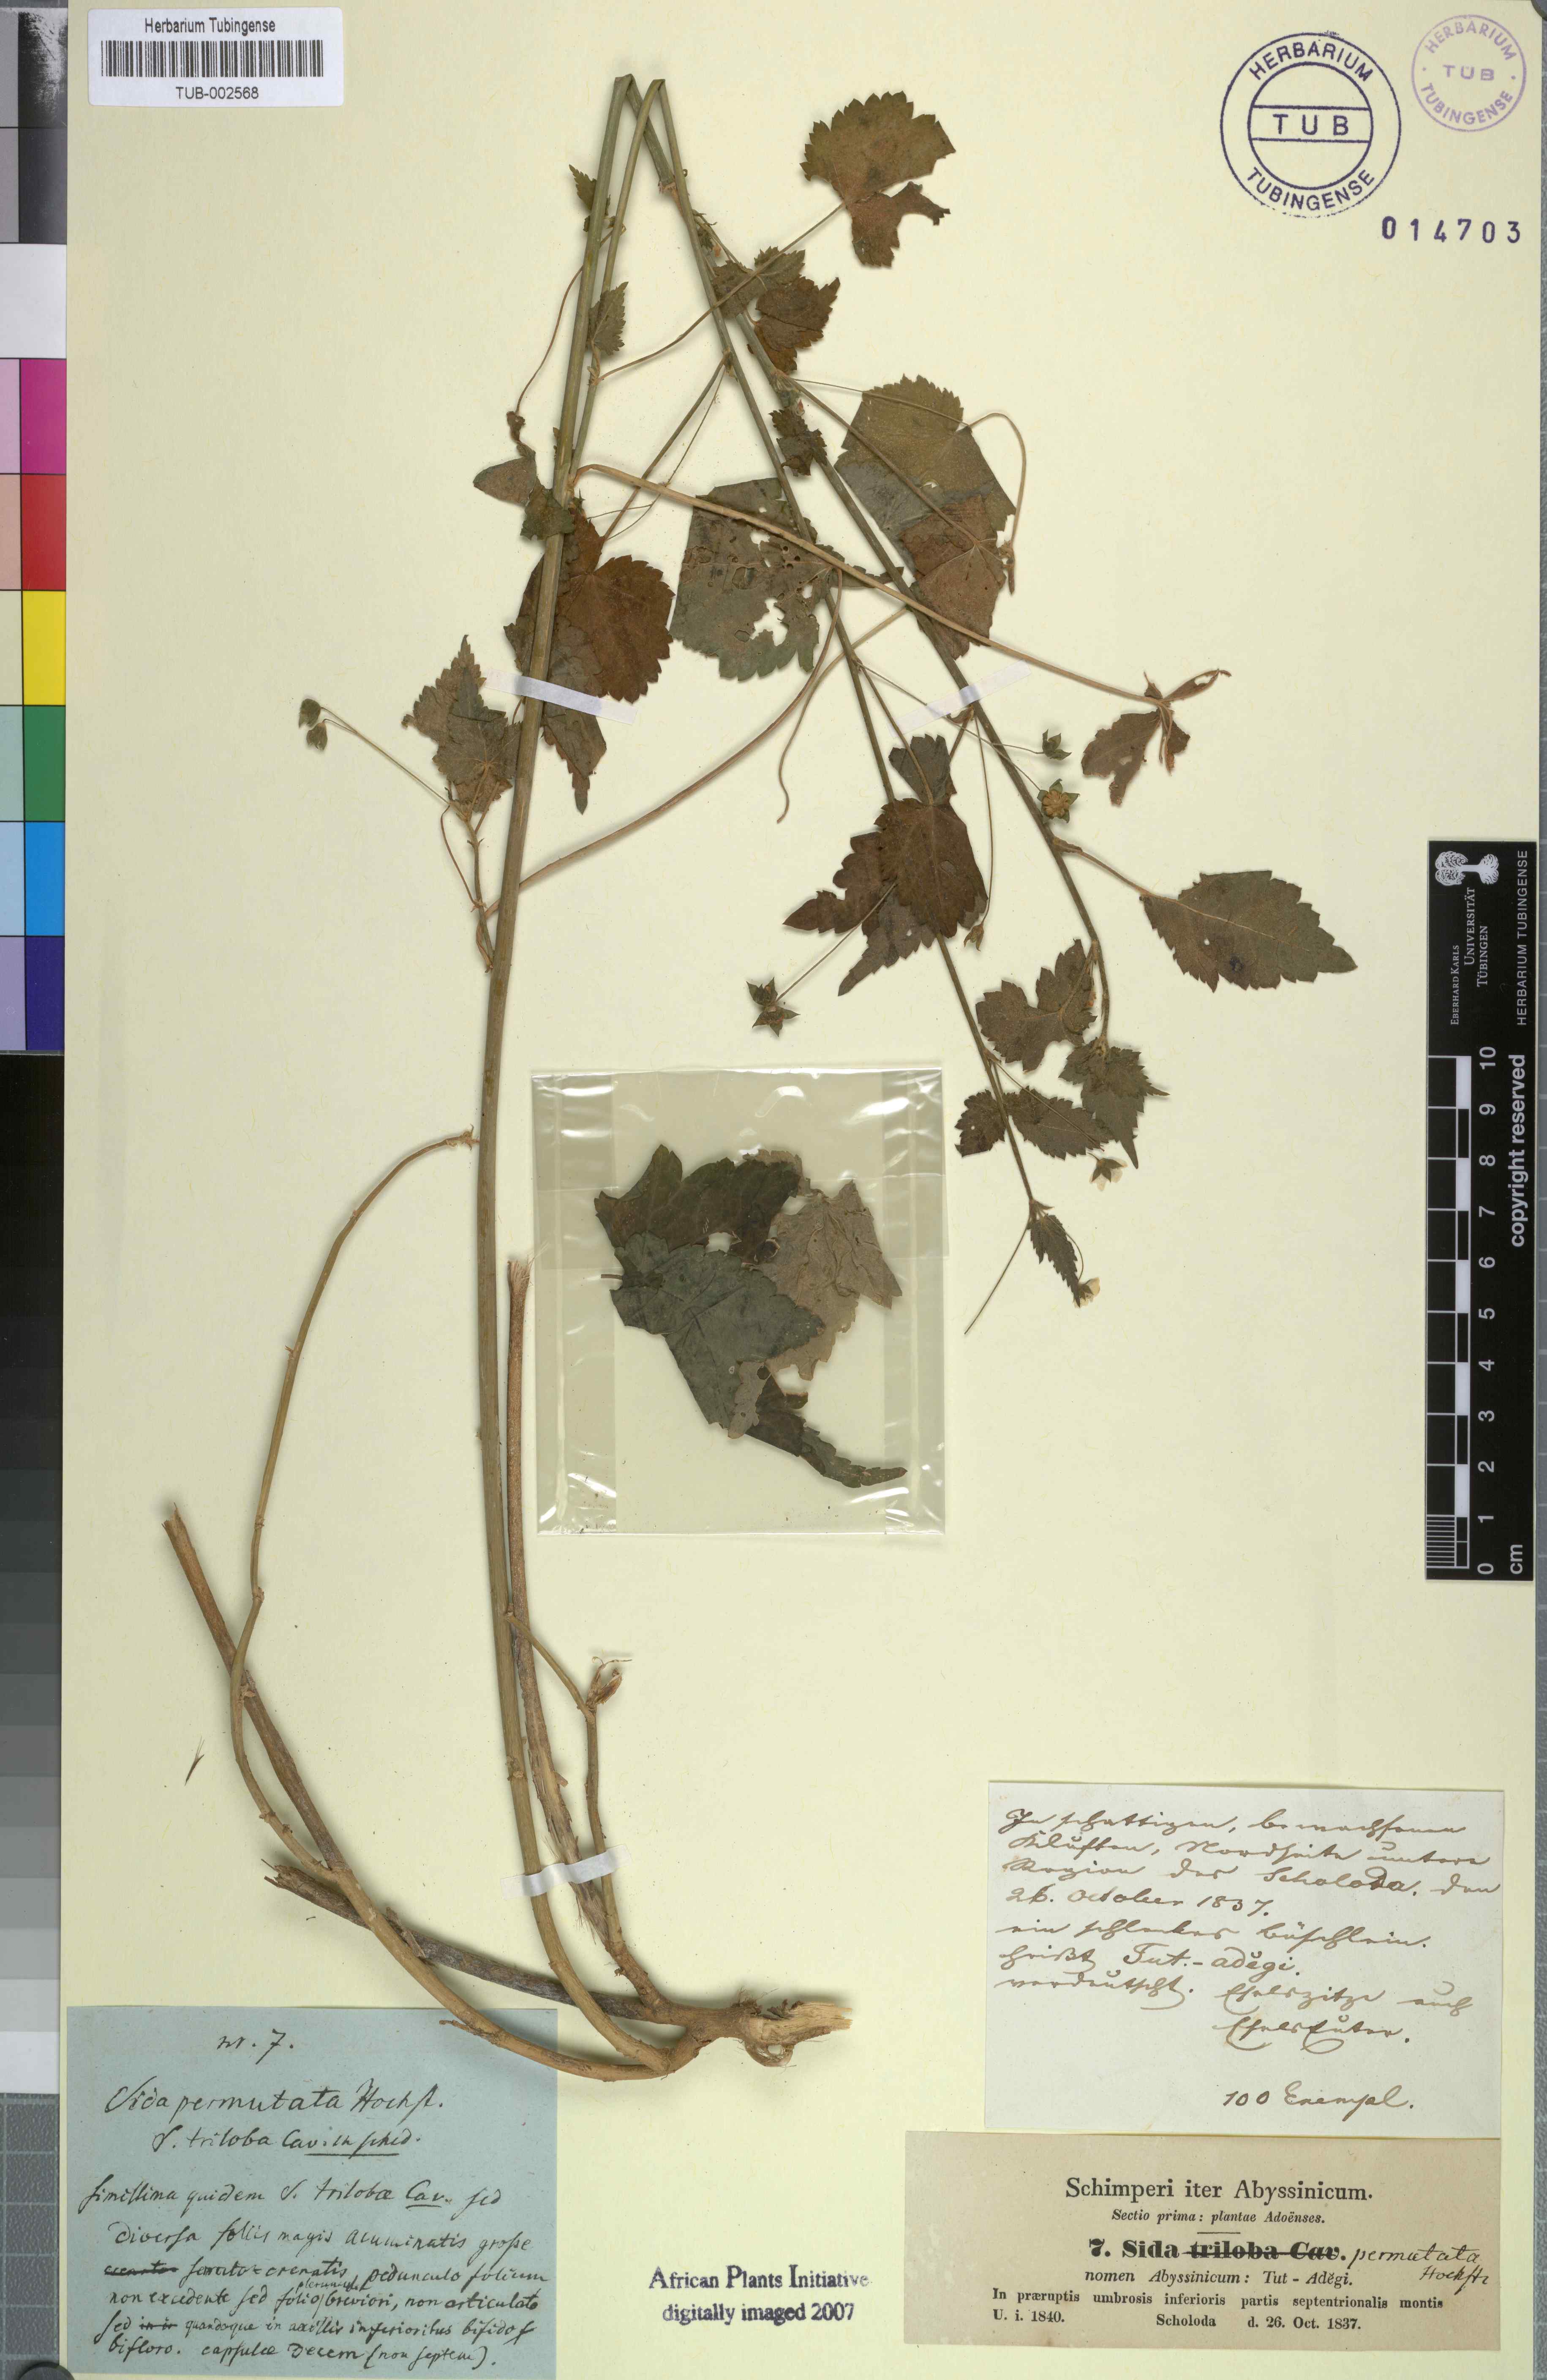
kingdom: Plantae
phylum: Tracheophyta
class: Magnoliopsida
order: Malvales
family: Malvaceae
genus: Sida
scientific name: Sida ternata
